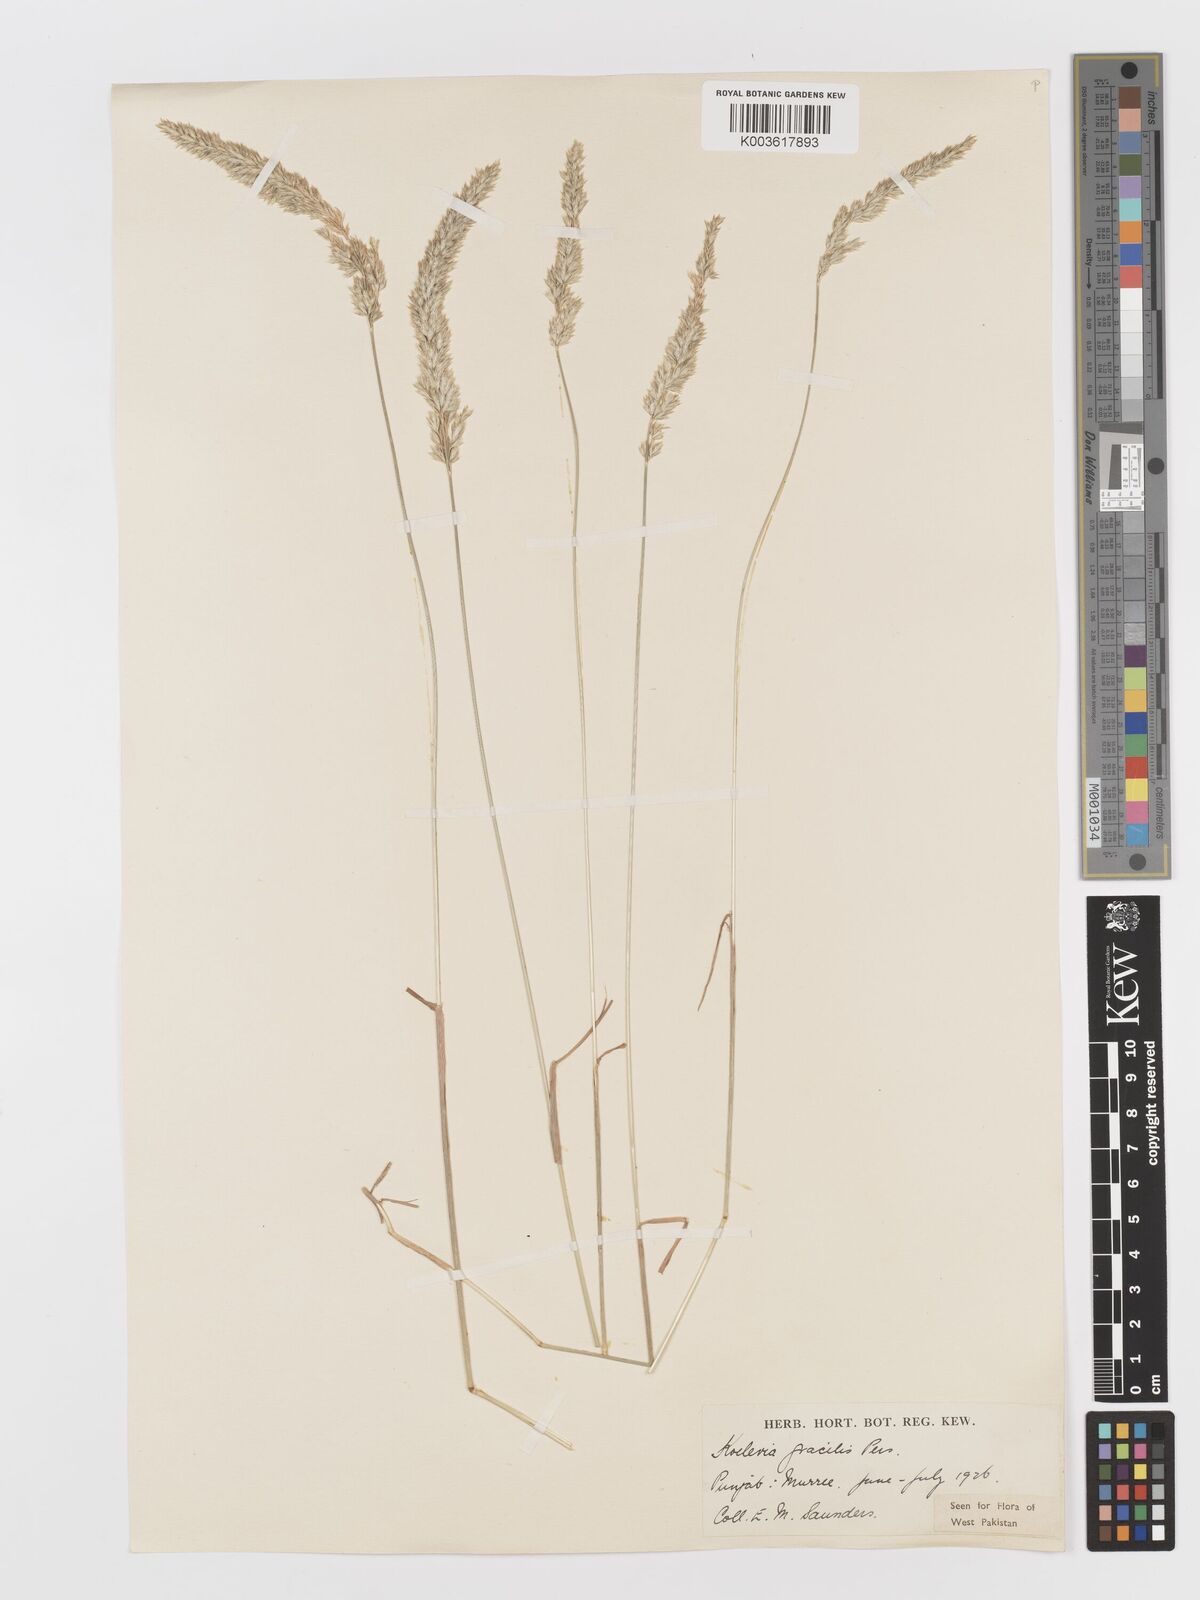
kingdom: Plantae
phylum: Tracheophyta
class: Liliopsida
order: Poales
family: Poaceae
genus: Koeleria
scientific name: Koeleria
